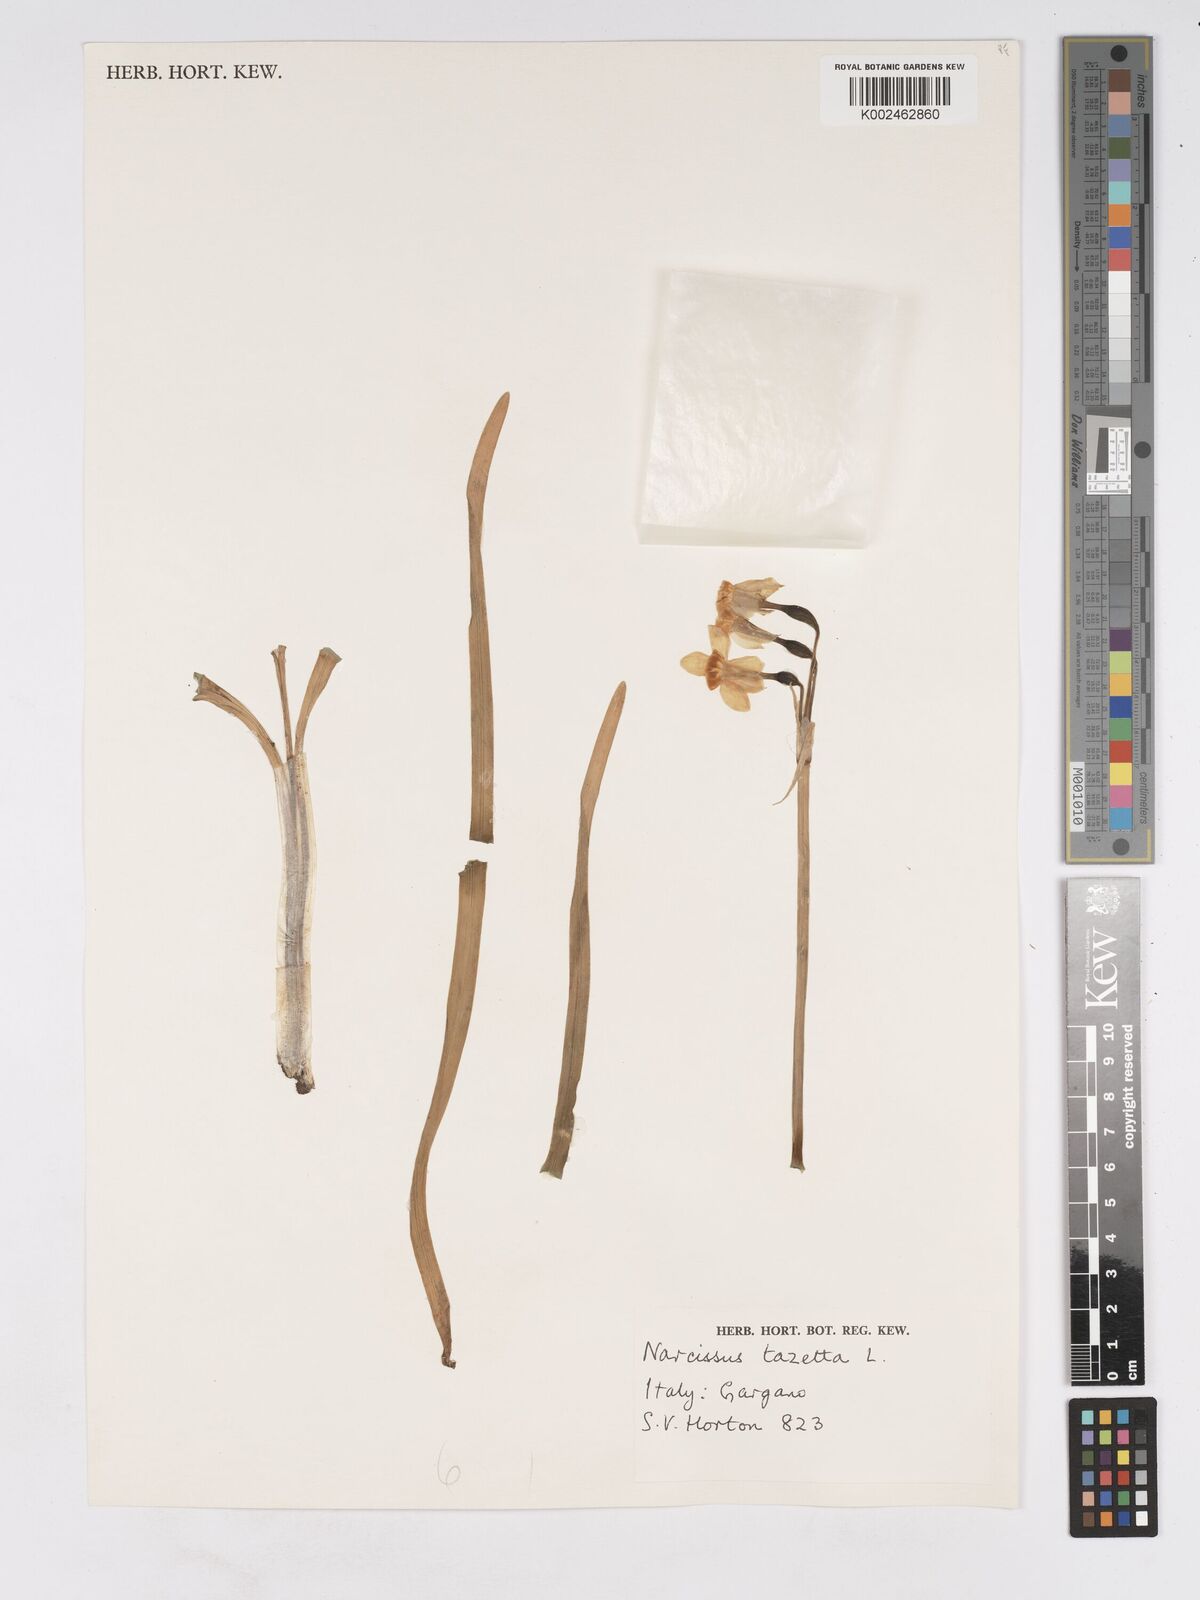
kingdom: Plantae
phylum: Tracheophyta
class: Liliopsida
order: Asparagales
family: Amaryllidaceae
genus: Narcissus
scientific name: Narcissus tazetta
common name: Bunch-flowered daffodil
